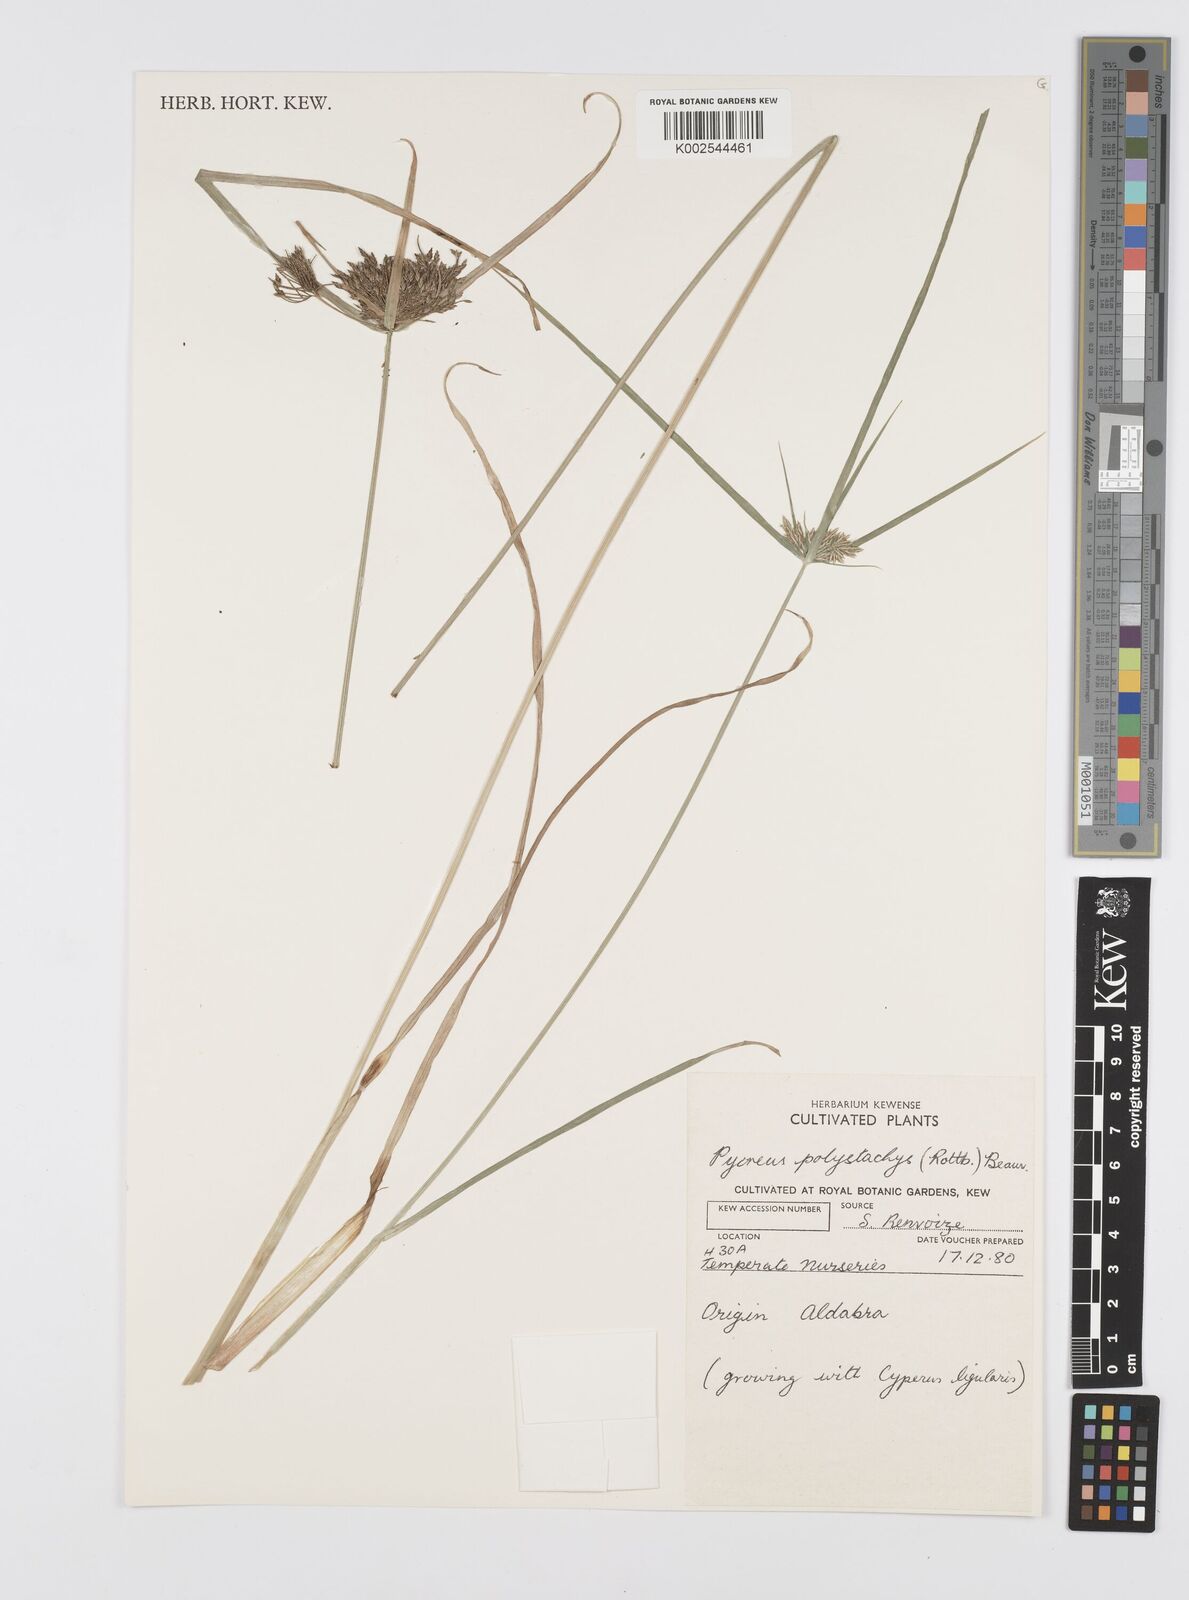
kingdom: Plantae
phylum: Tracheophyta
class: Liliopsida
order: Poales
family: Cyperaceae
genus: Cyperus
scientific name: Cyperus polystachyos
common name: Bunchy flat sedge
